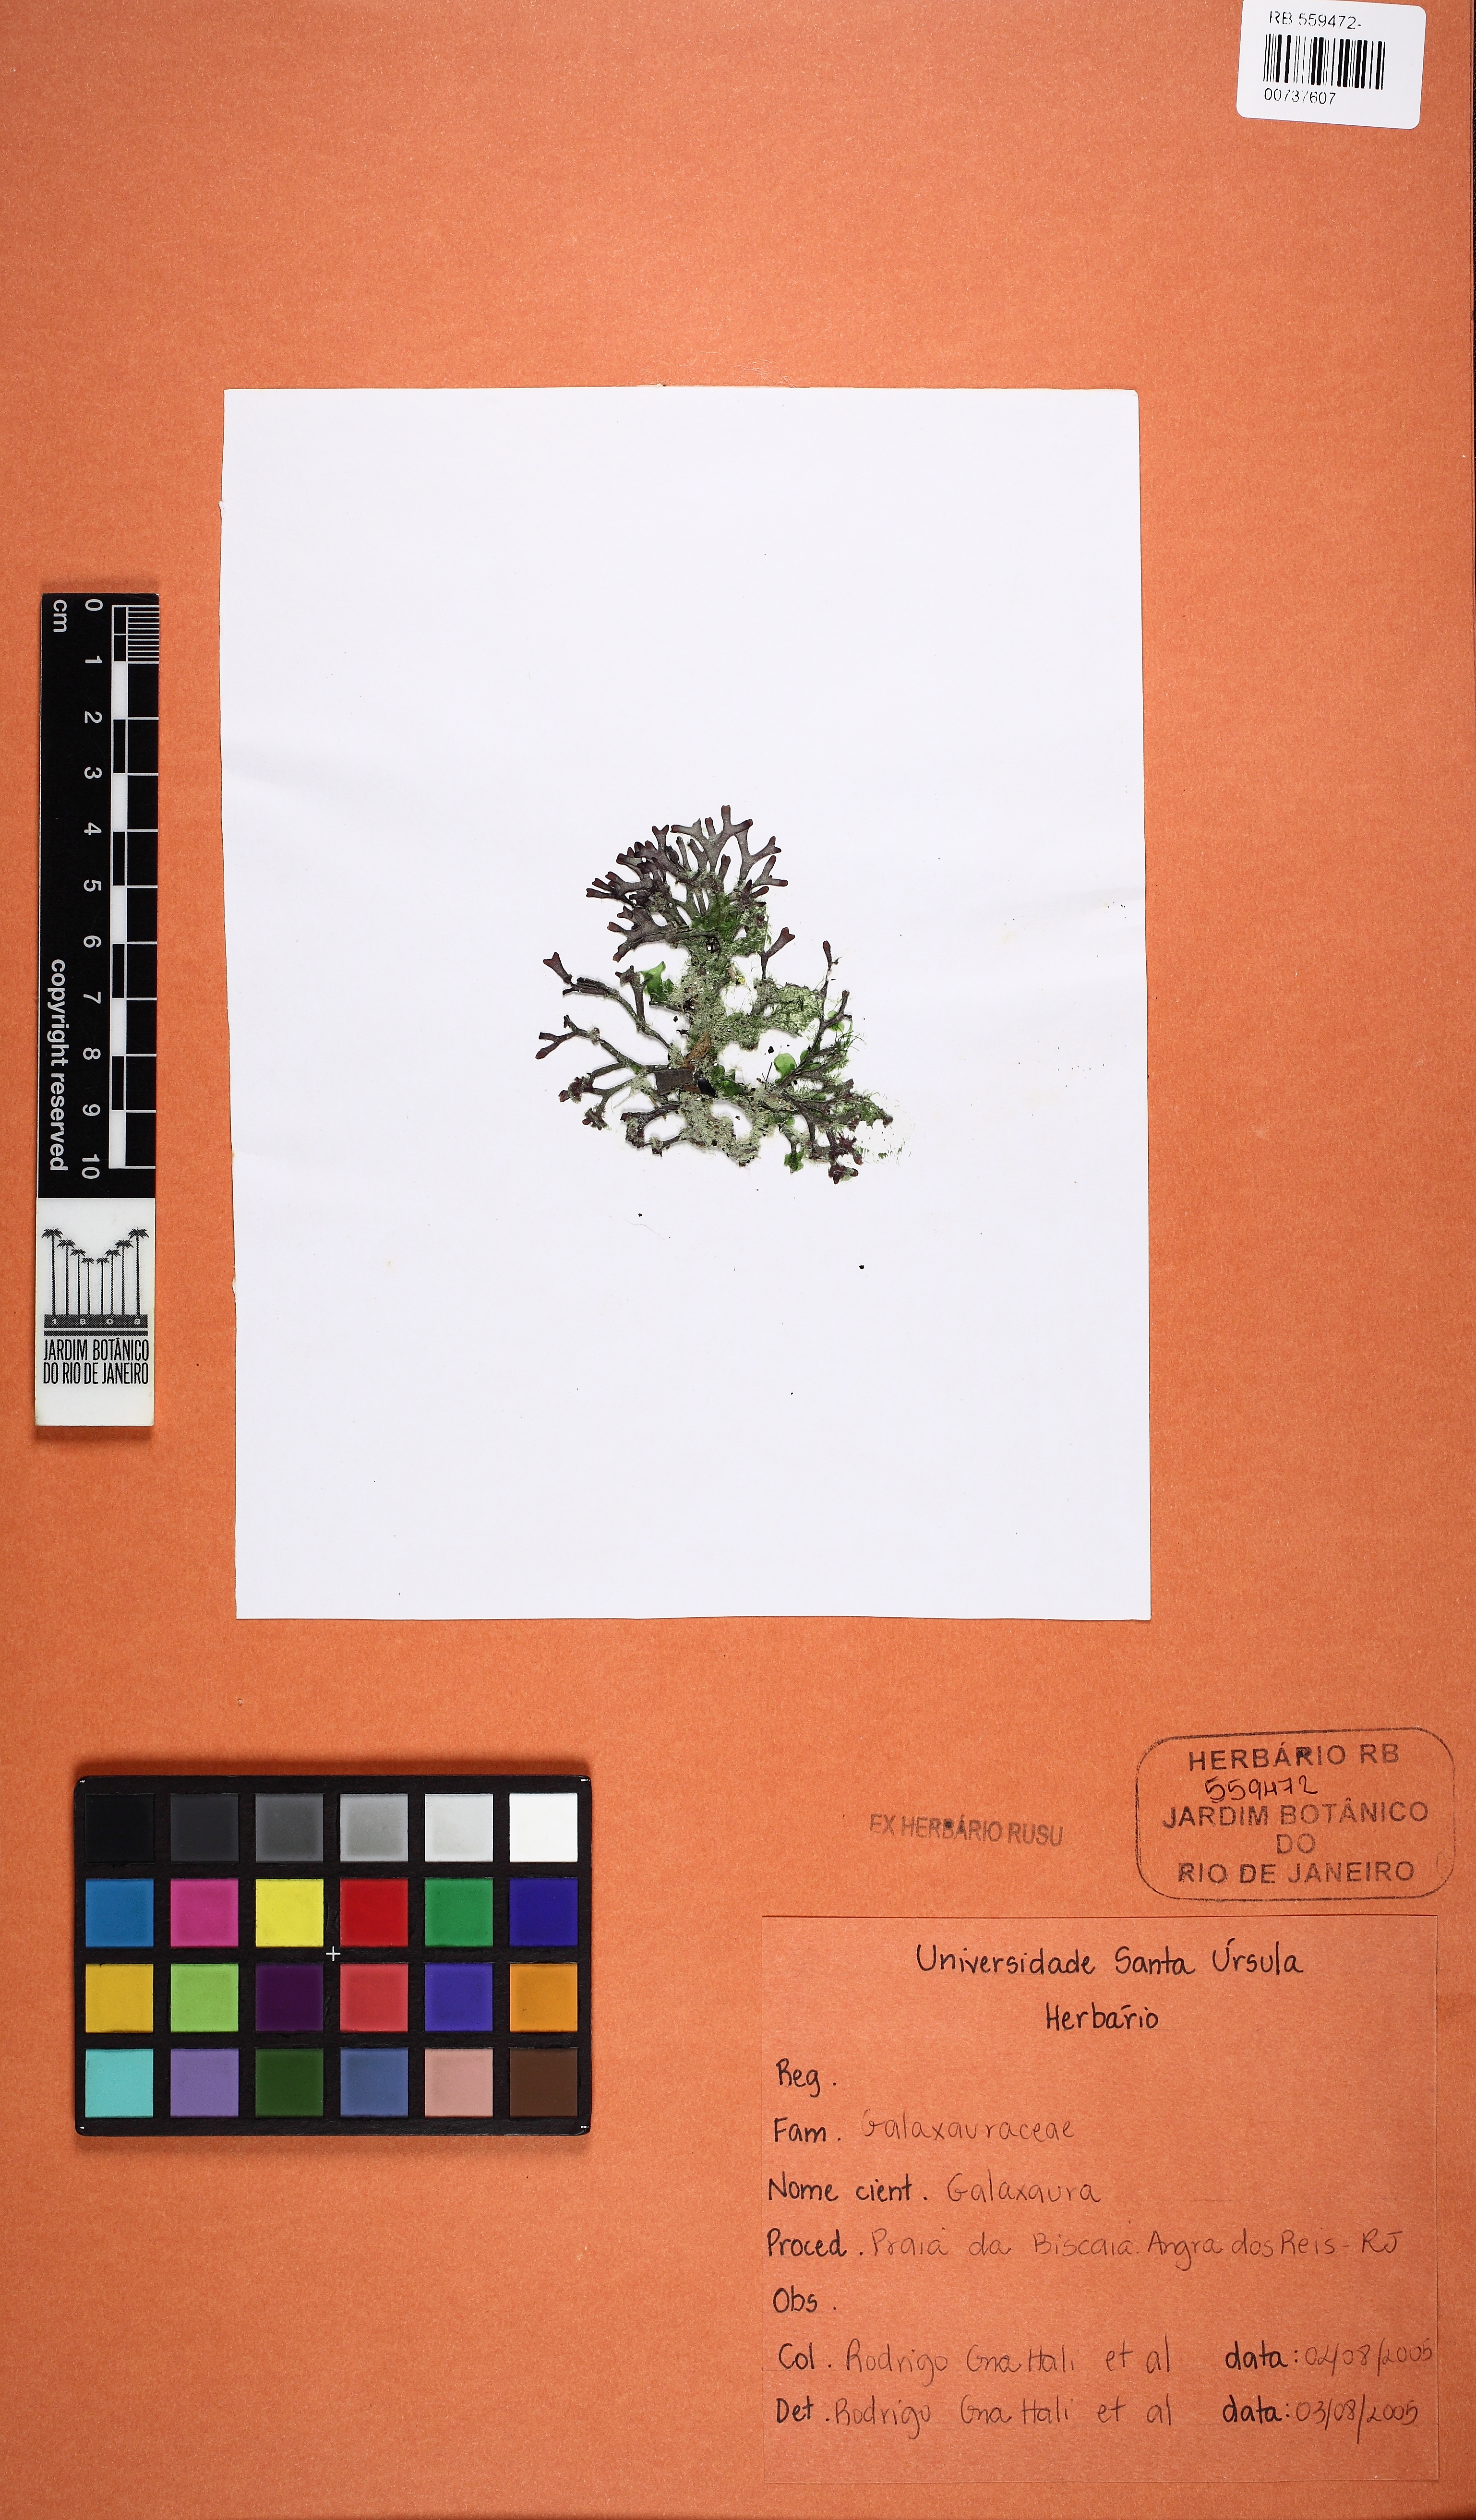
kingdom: Plantae
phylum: Rhodophyta
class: Florideophyceae
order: Nemaliales
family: Galaxauraceae
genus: Galaxaura
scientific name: Galaxaura
